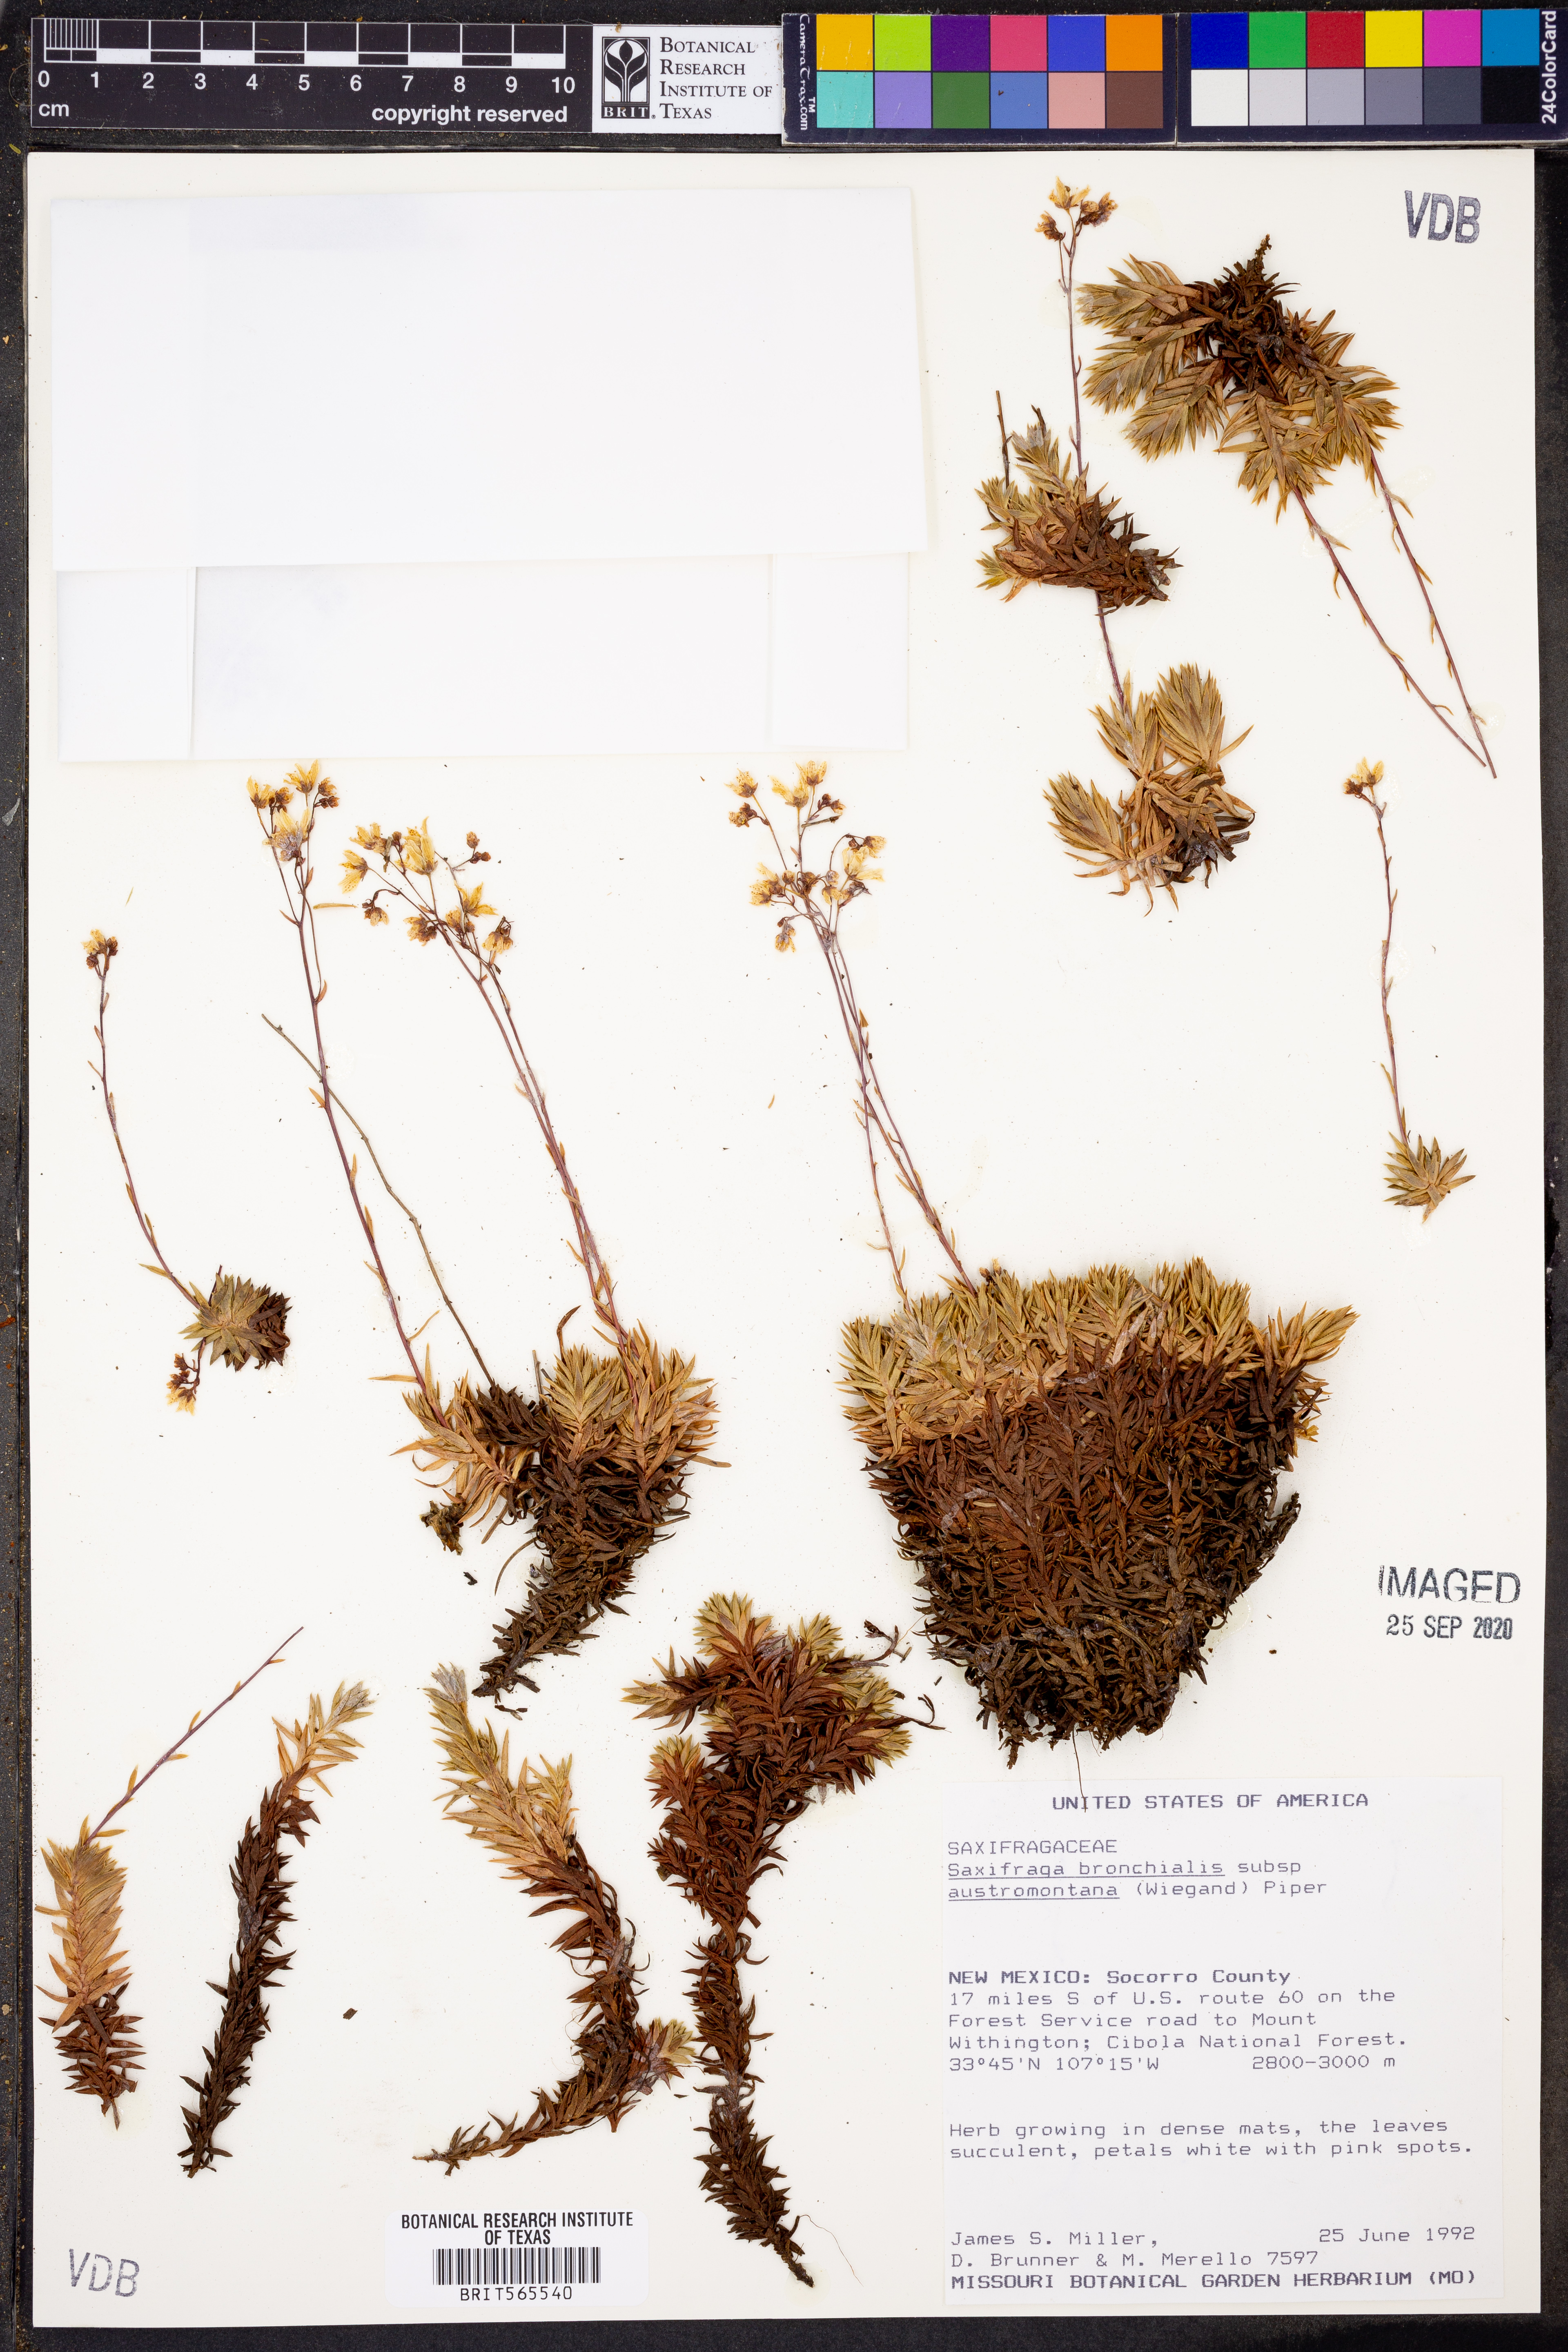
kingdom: Plantae
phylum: Tracheophyta
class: Magnoliopsida
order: Saxifragales
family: Saxifragaceae
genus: Saxifraga
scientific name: Saxifraga bronchialis
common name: Matted saxifrage
